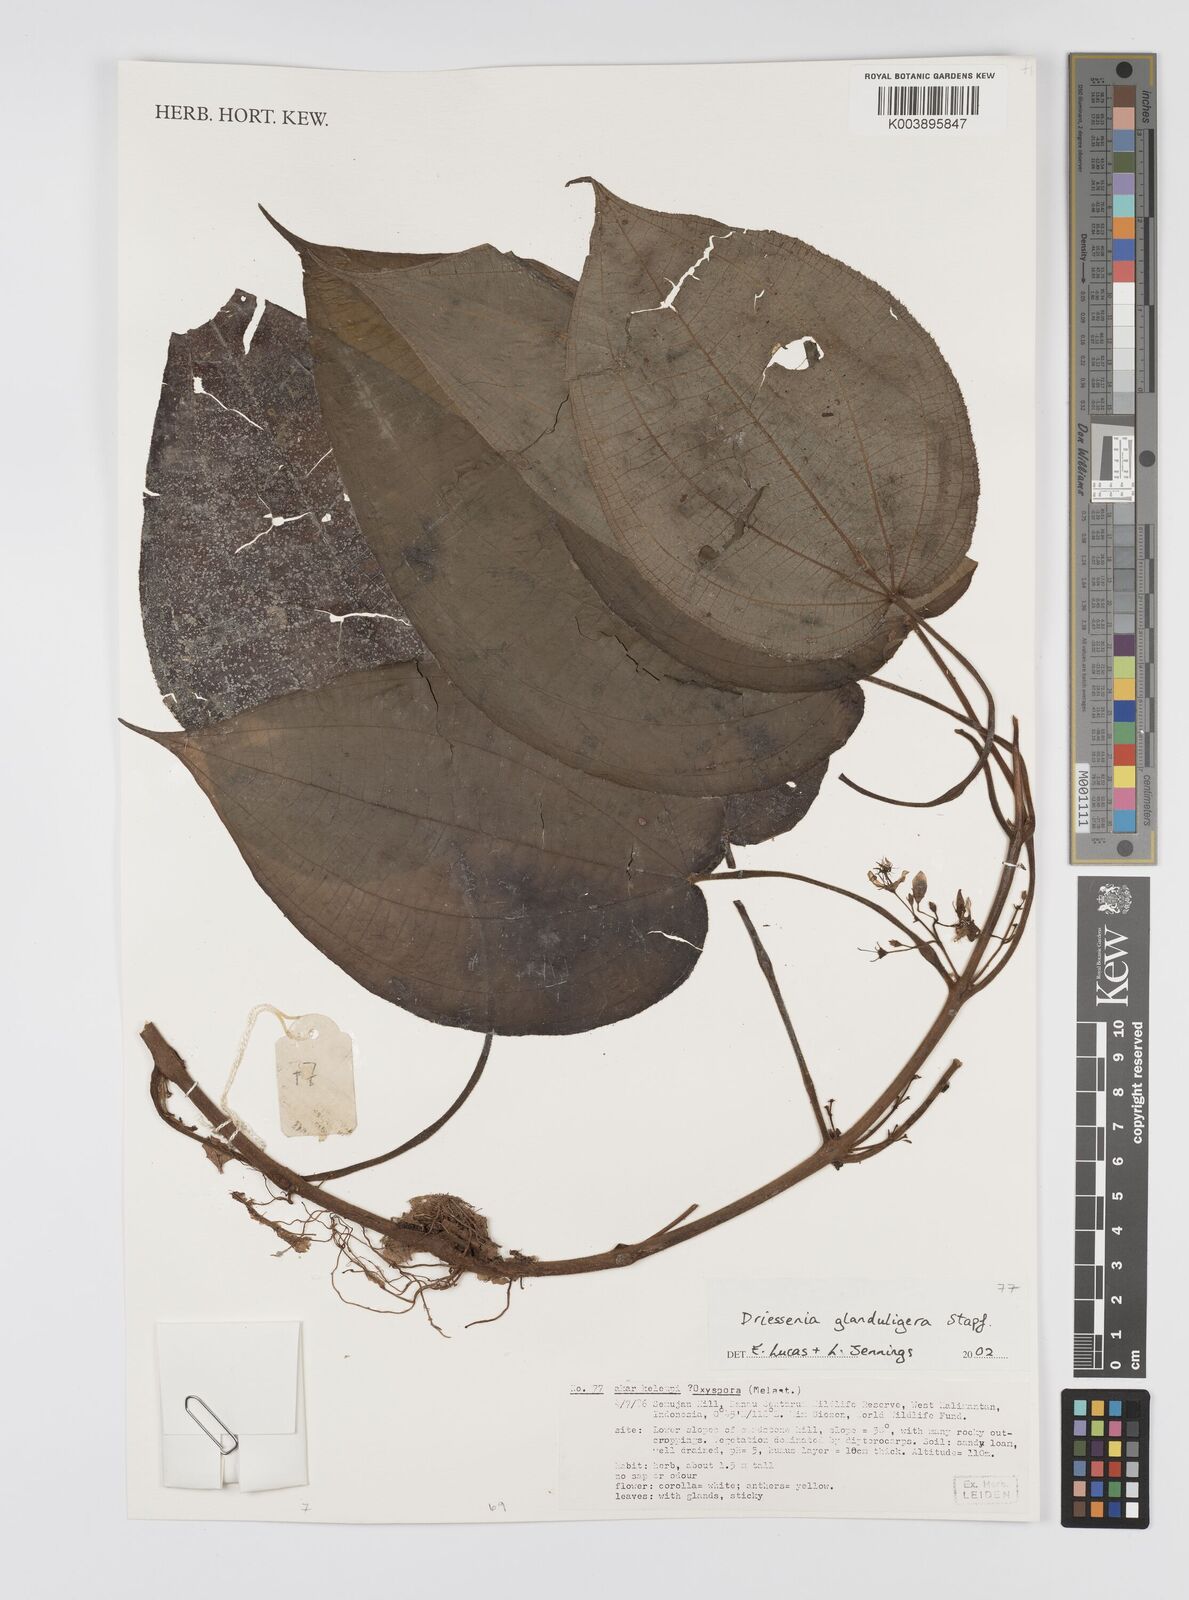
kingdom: Plantae
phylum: Tracheophyta
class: Magnoliopsida
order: Myrtales
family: Melastomataceae
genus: Driessenia
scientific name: Driessenia glanduligera
